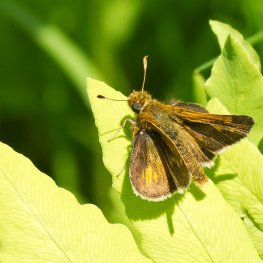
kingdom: Animalia
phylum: Arthropoda
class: Insecta
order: Lepidoptera
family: Hesperiidae
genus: Polites
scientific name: Polites themistocles
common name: Tawny-edged Skipper
